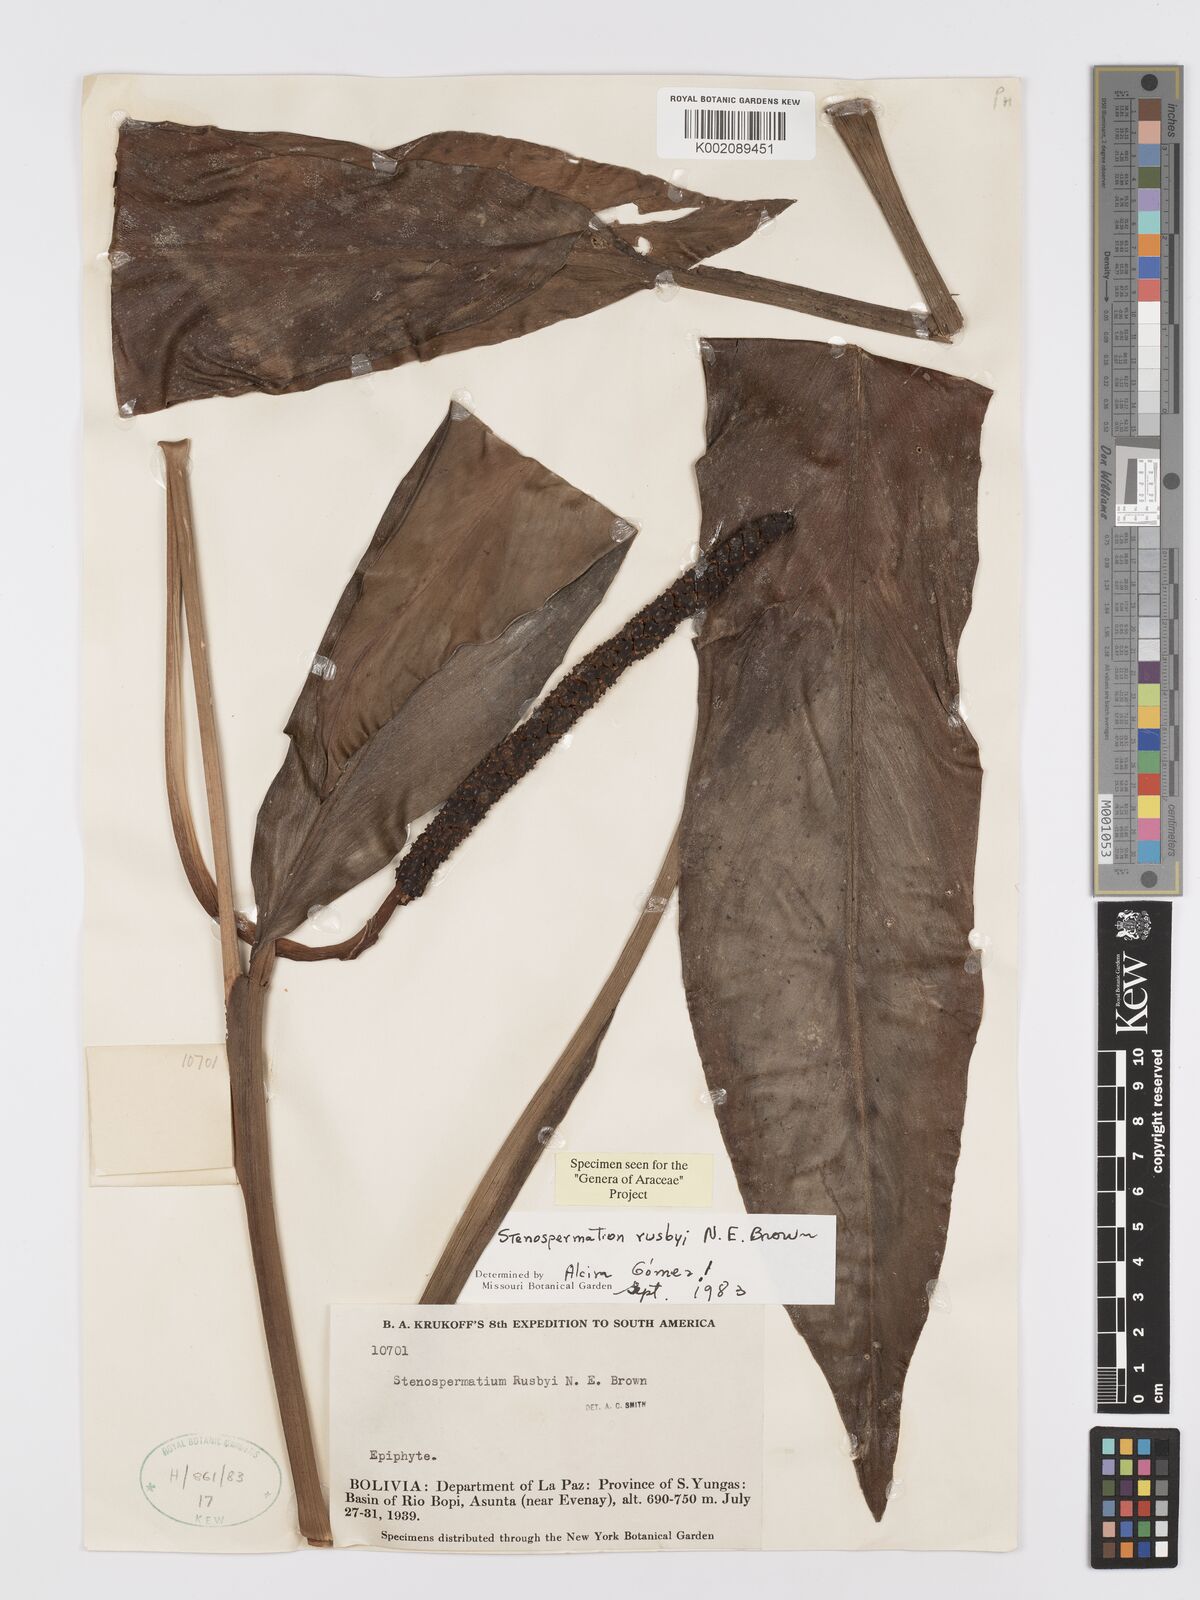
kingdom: Plantae
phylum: Tracheophyta
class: Liliopsida
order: Alismatales
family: Araceae
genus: Stenospermation
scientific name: Stenospermation rusbyi
